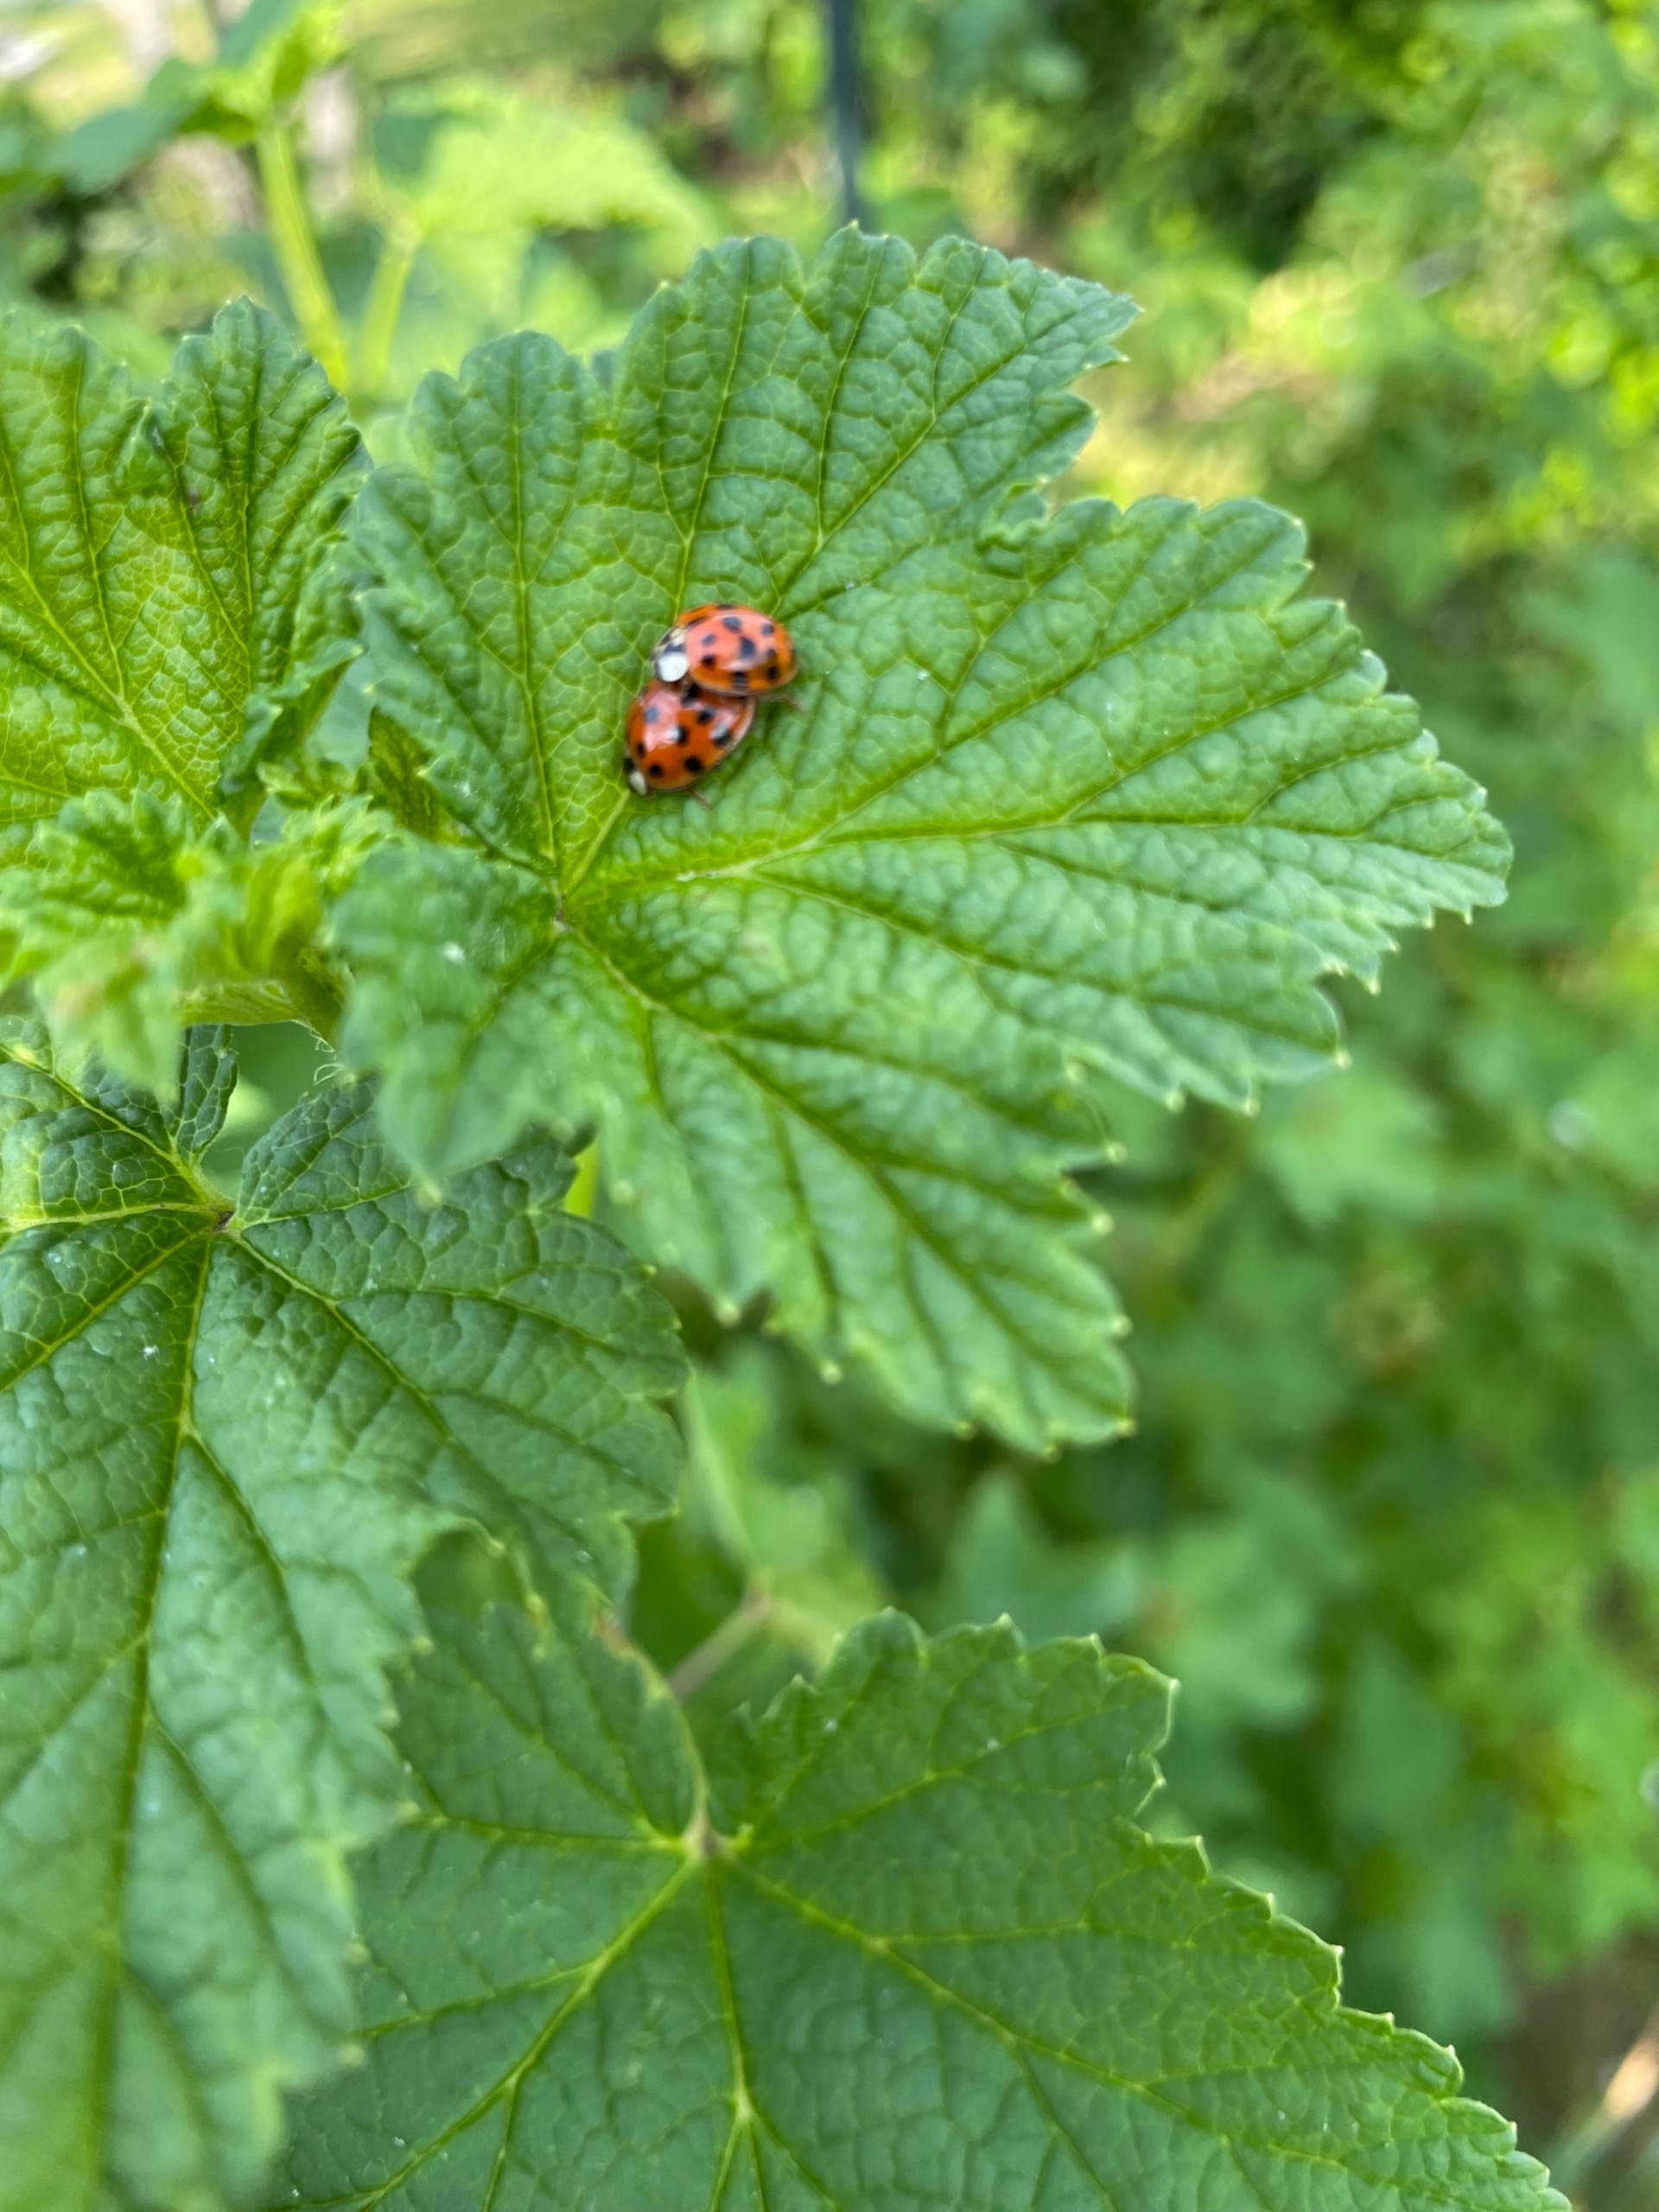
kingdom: Animalia
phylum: Arthropoda
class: Insecta
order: Coleoptera
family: Coccinellidae
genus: Harmonia
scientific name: Harmonia axyridis
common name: Harlekinmariehøne
